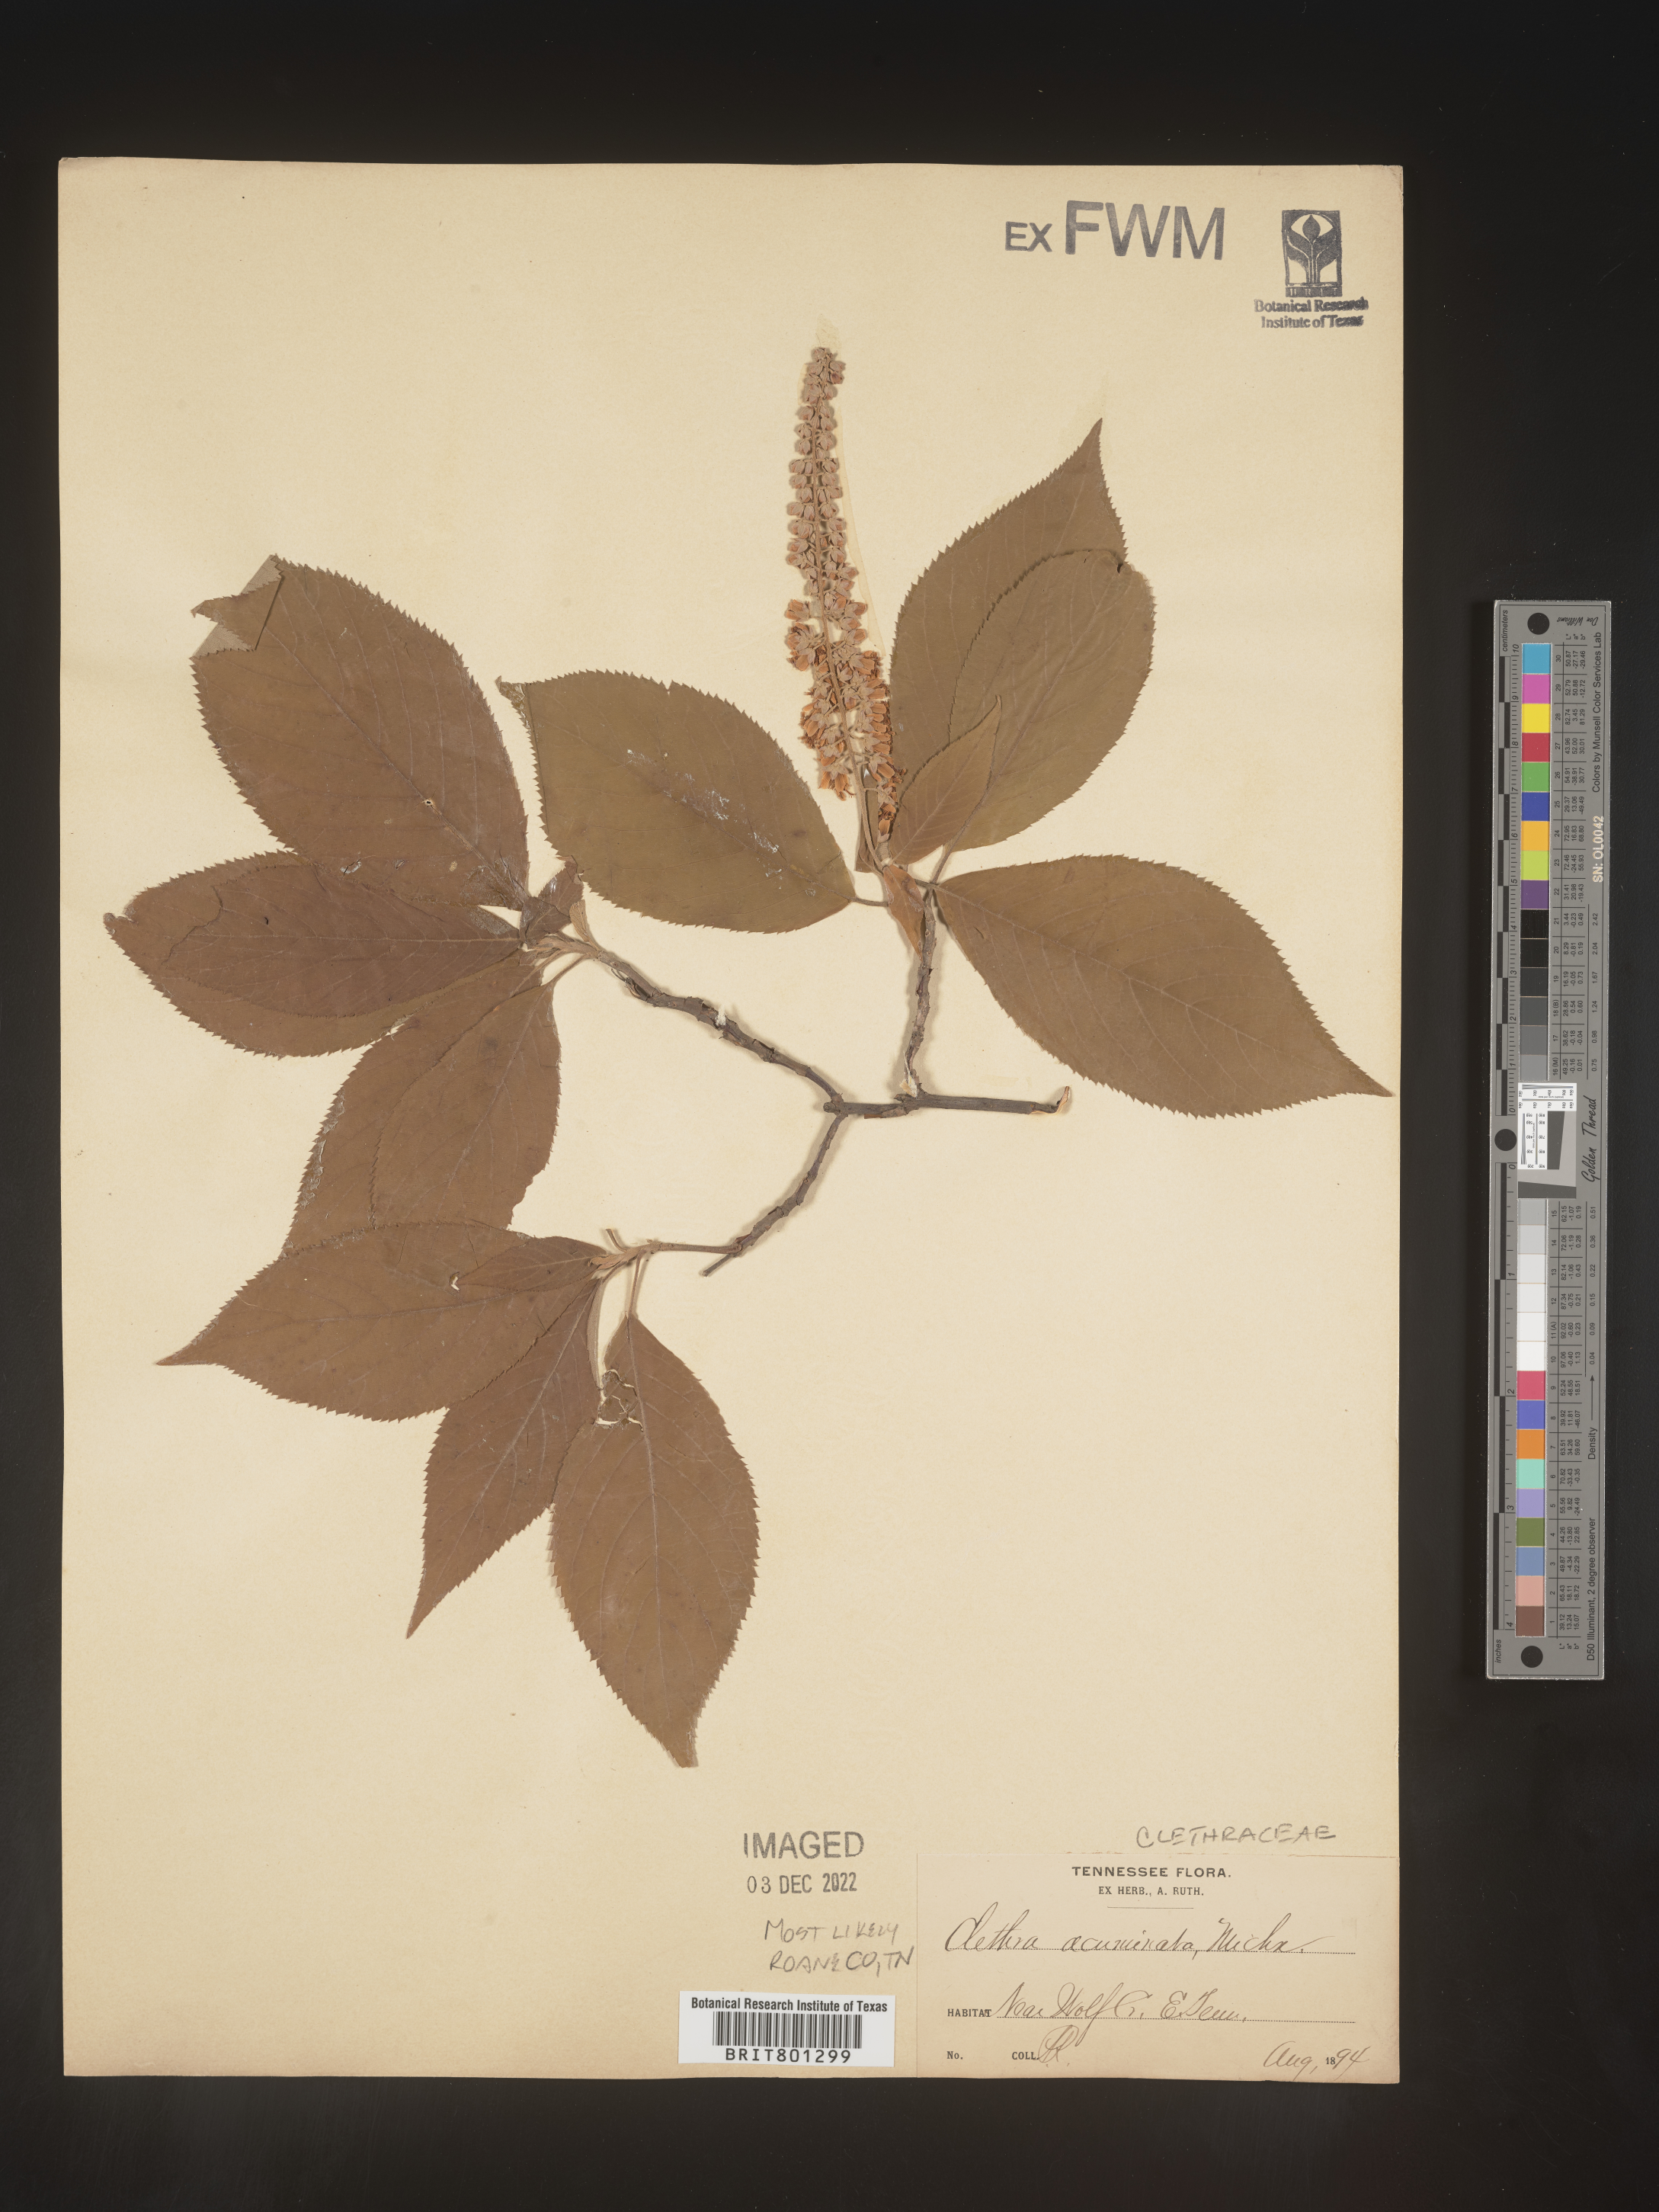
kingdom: Plantae
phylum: Tracheophyta
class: Magnoliopsida
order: Ericales
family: Clethraceae
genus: Clethra
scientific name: Clethra acuminata
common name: Mountain sweet pepperbush
